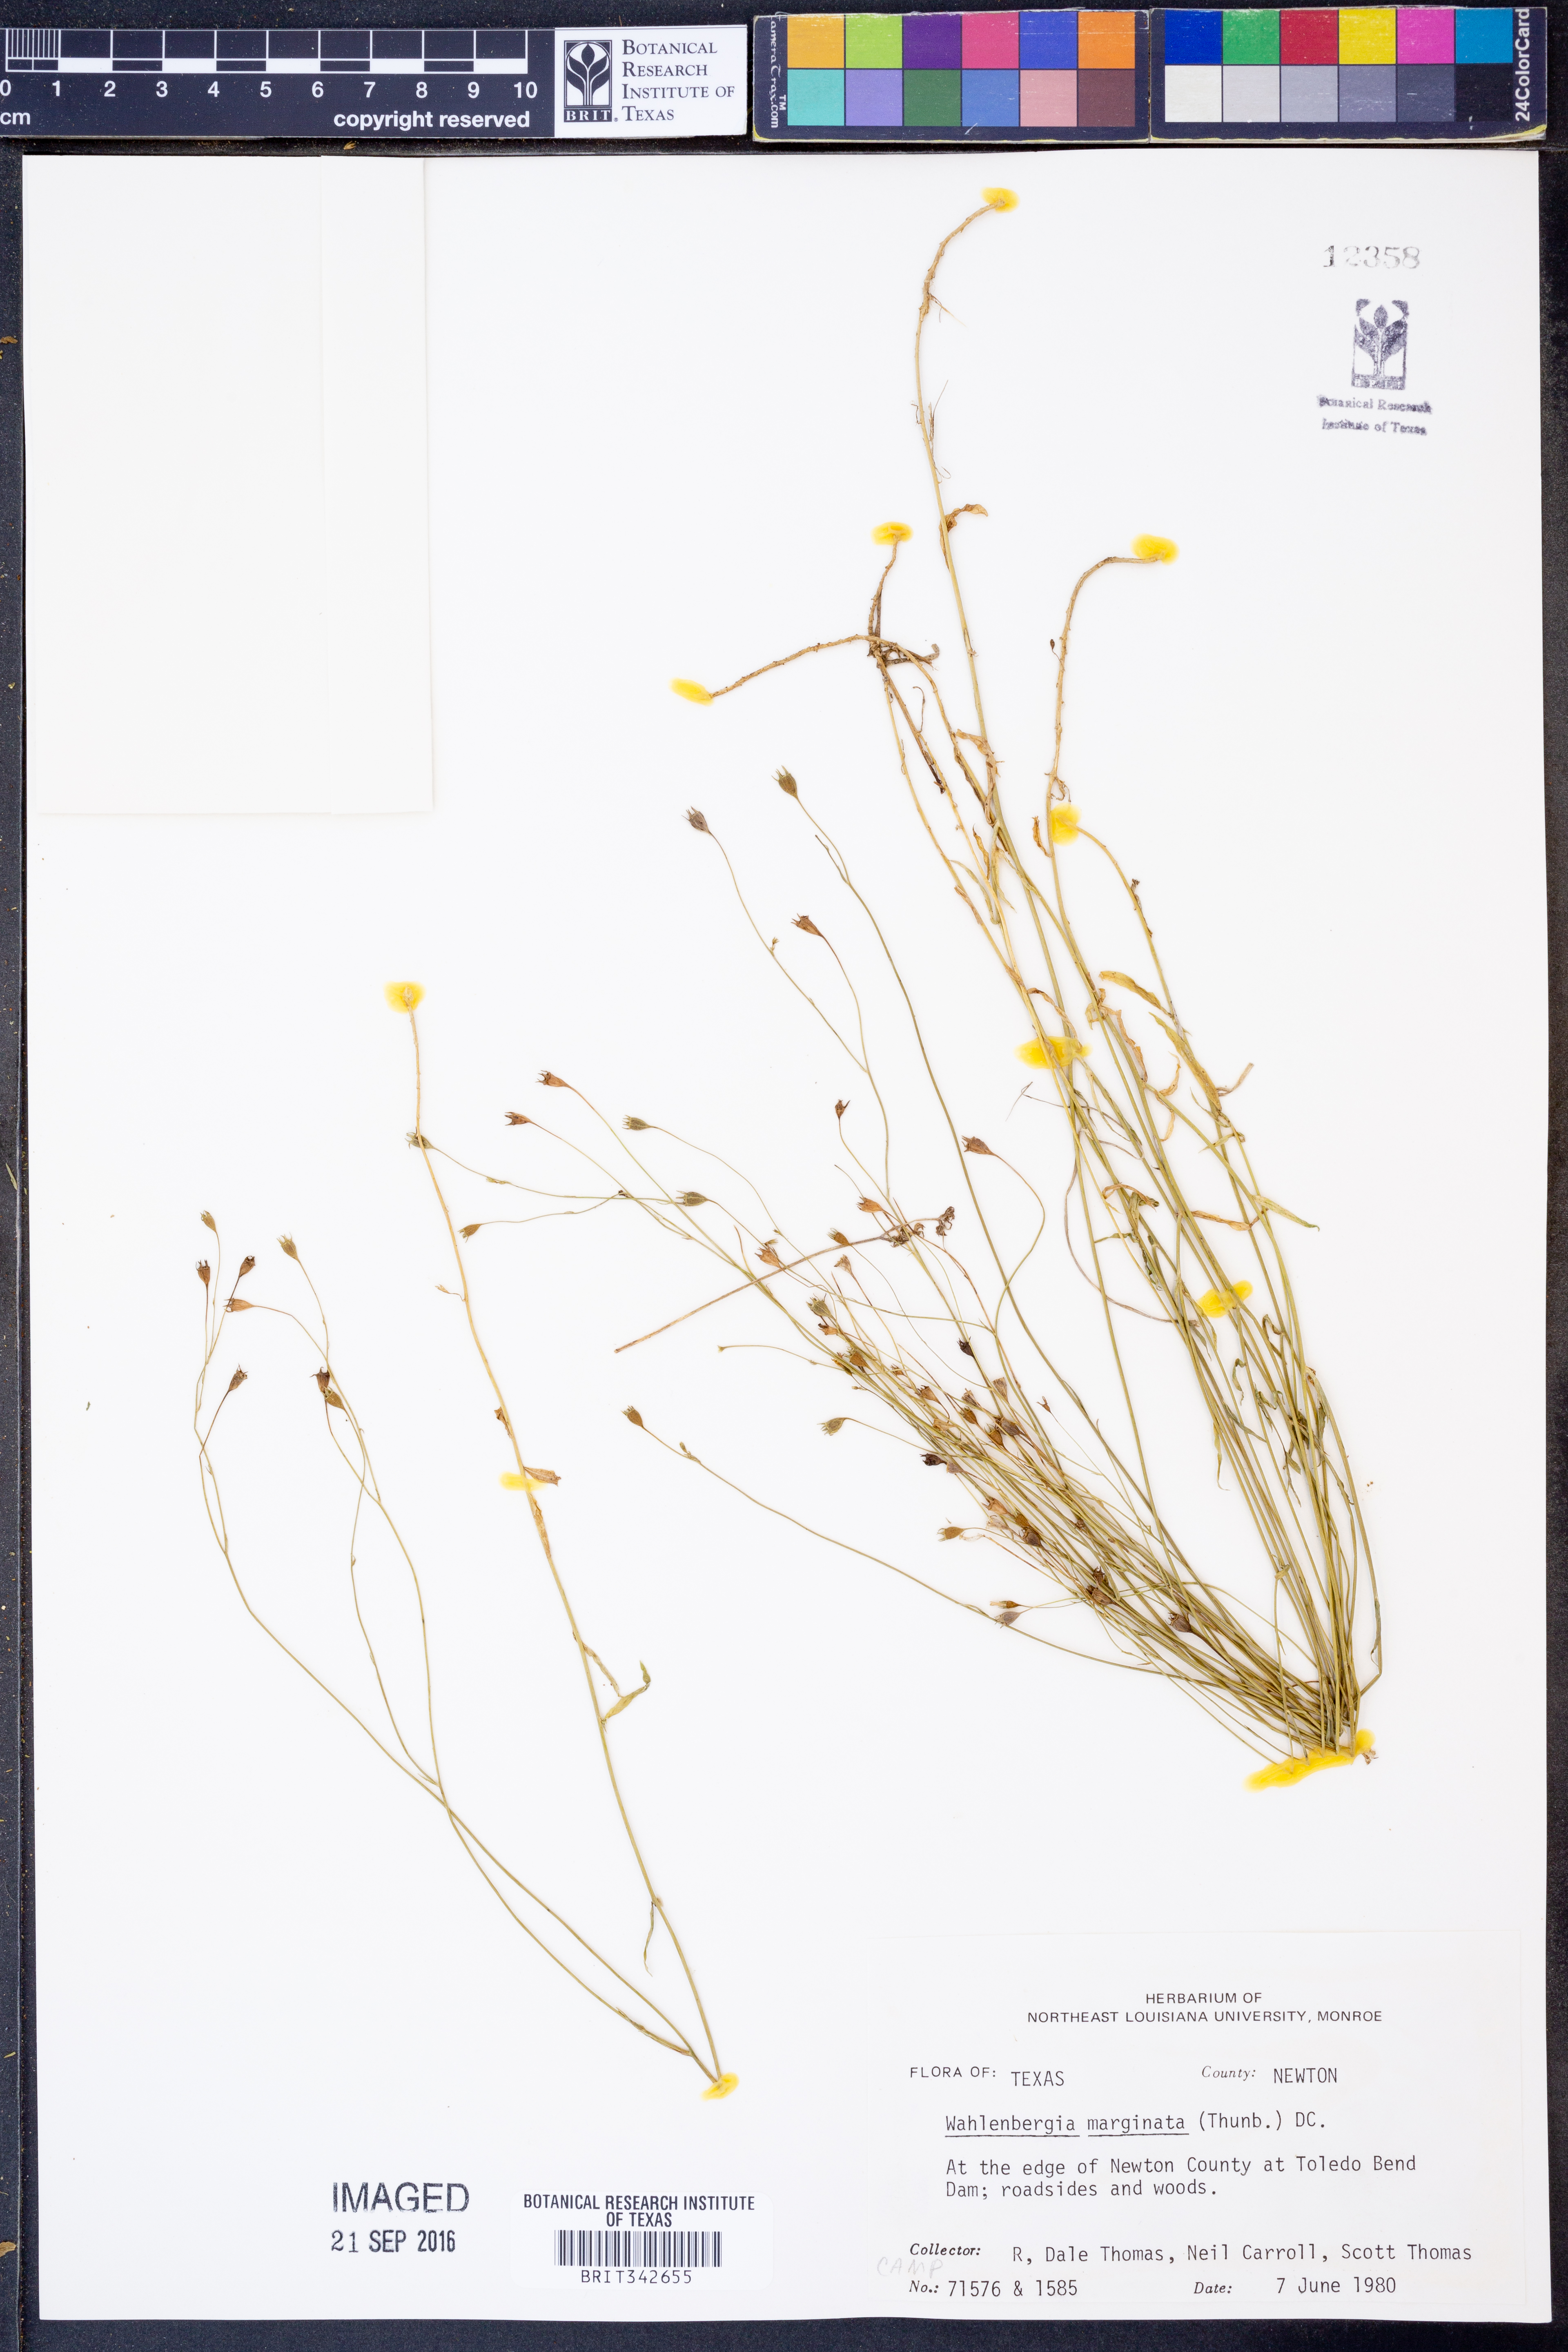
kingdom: Plantae
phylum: Tracheophyta
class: Magnoliopsida
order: Asterales
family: Campanulaceae
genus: Wahlenbergia
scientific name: Wahlenbergia marginata
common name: Southern rockbell
